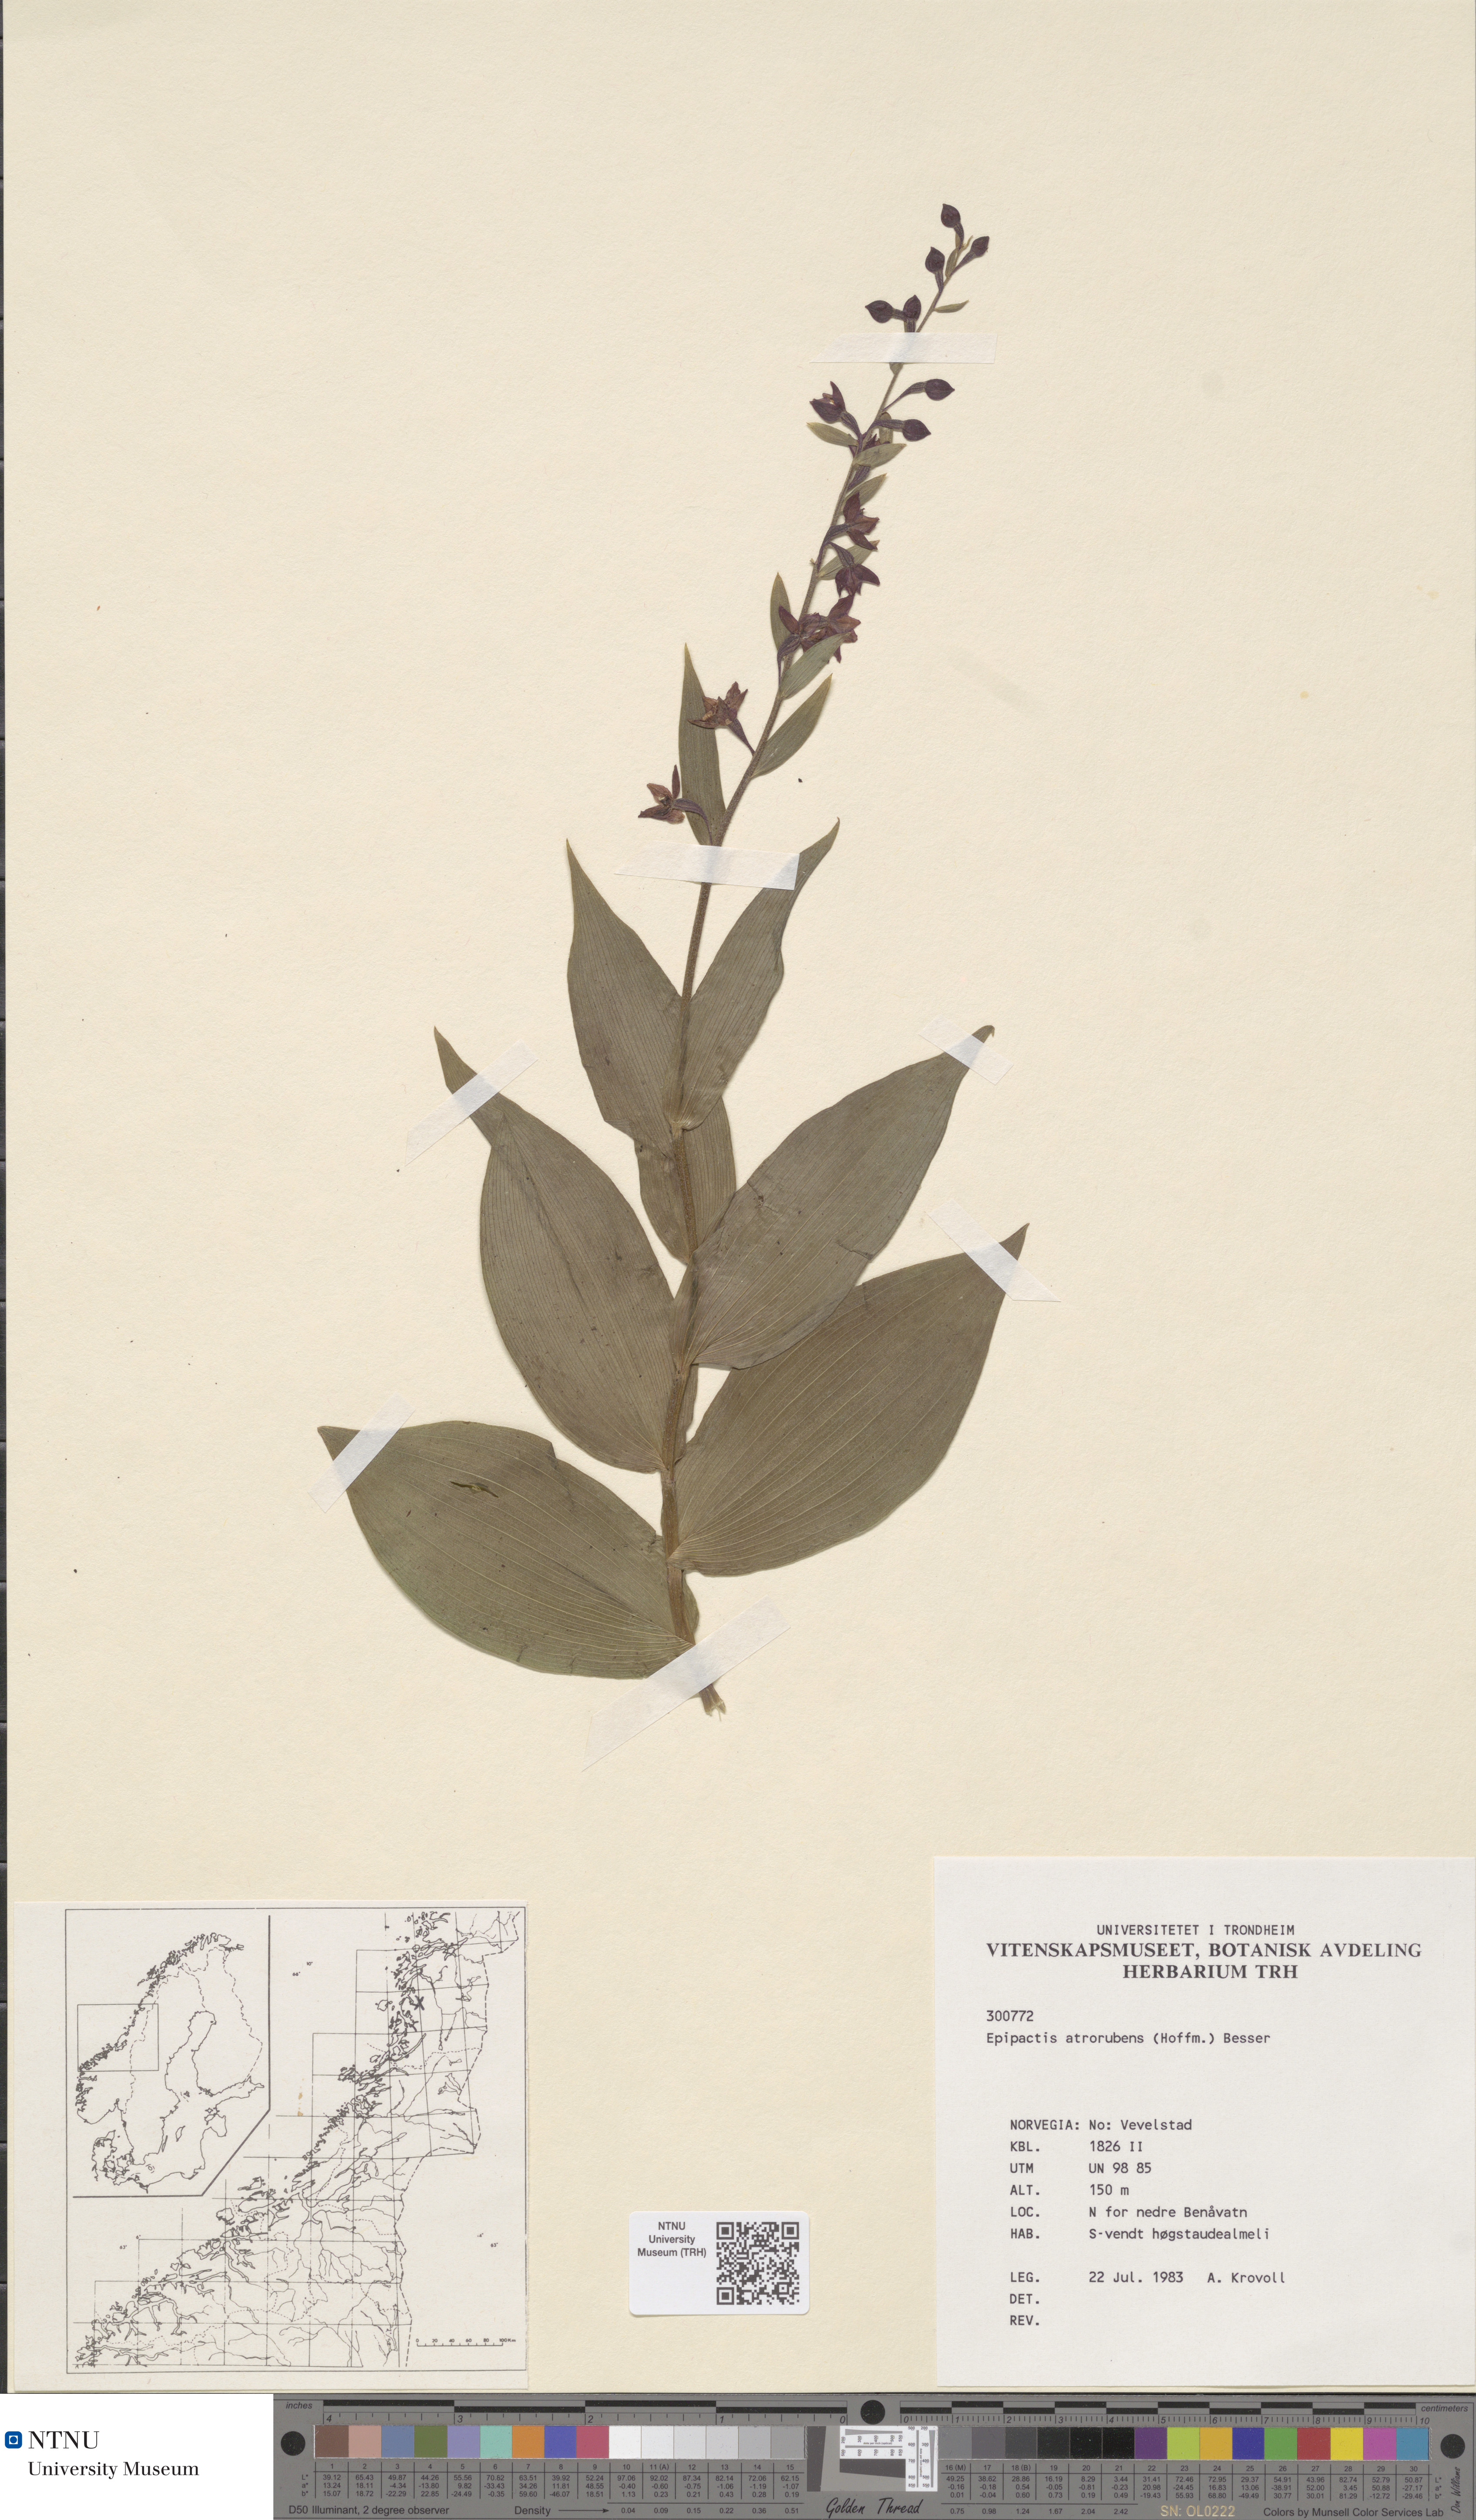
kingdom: Plantae
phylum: Tracheophyta
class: Liliopsida
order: Asparagales
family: Orchidaceae
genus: Epipactis
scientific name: Epipactis atrorubens
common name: Dark-red helleborine
